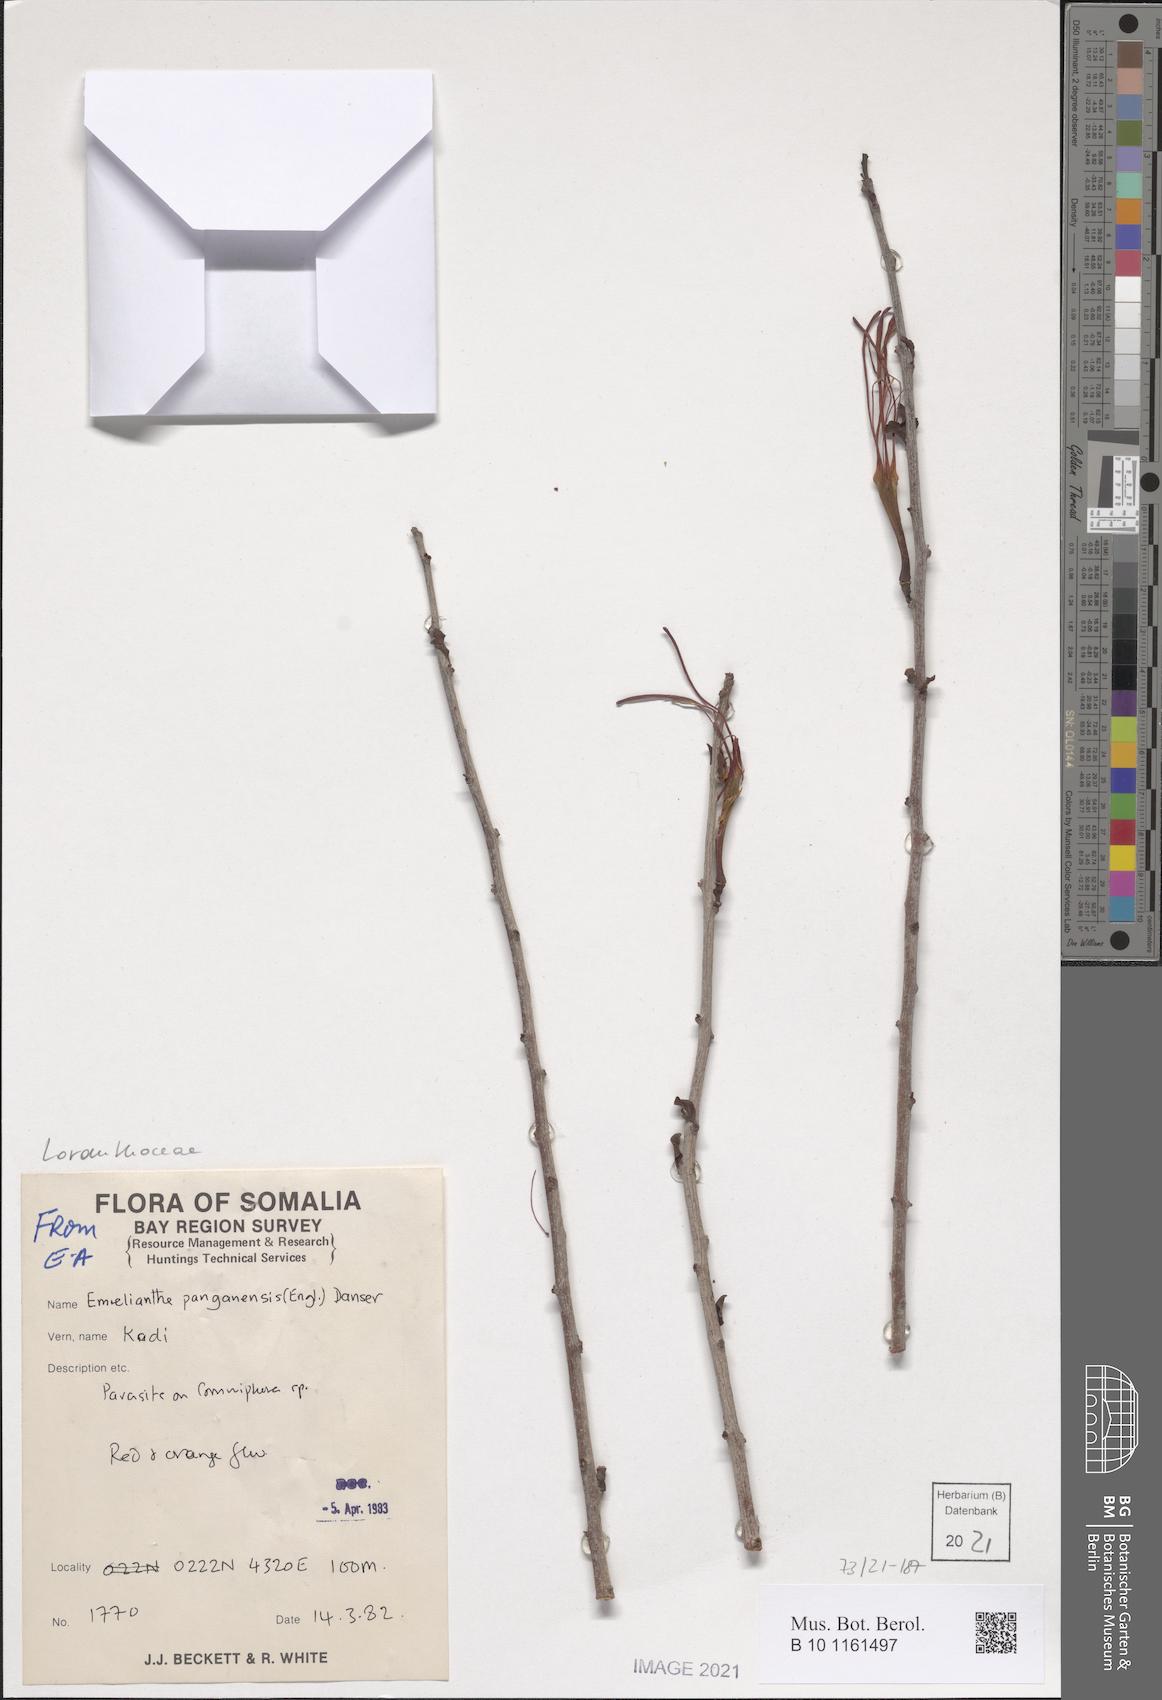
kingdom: Plantae
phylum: Tracheophyta
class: Magnoliopsida
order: Santalales
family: Loranthaceae
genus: Emelianthe
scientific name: Emelianthe panganensis
